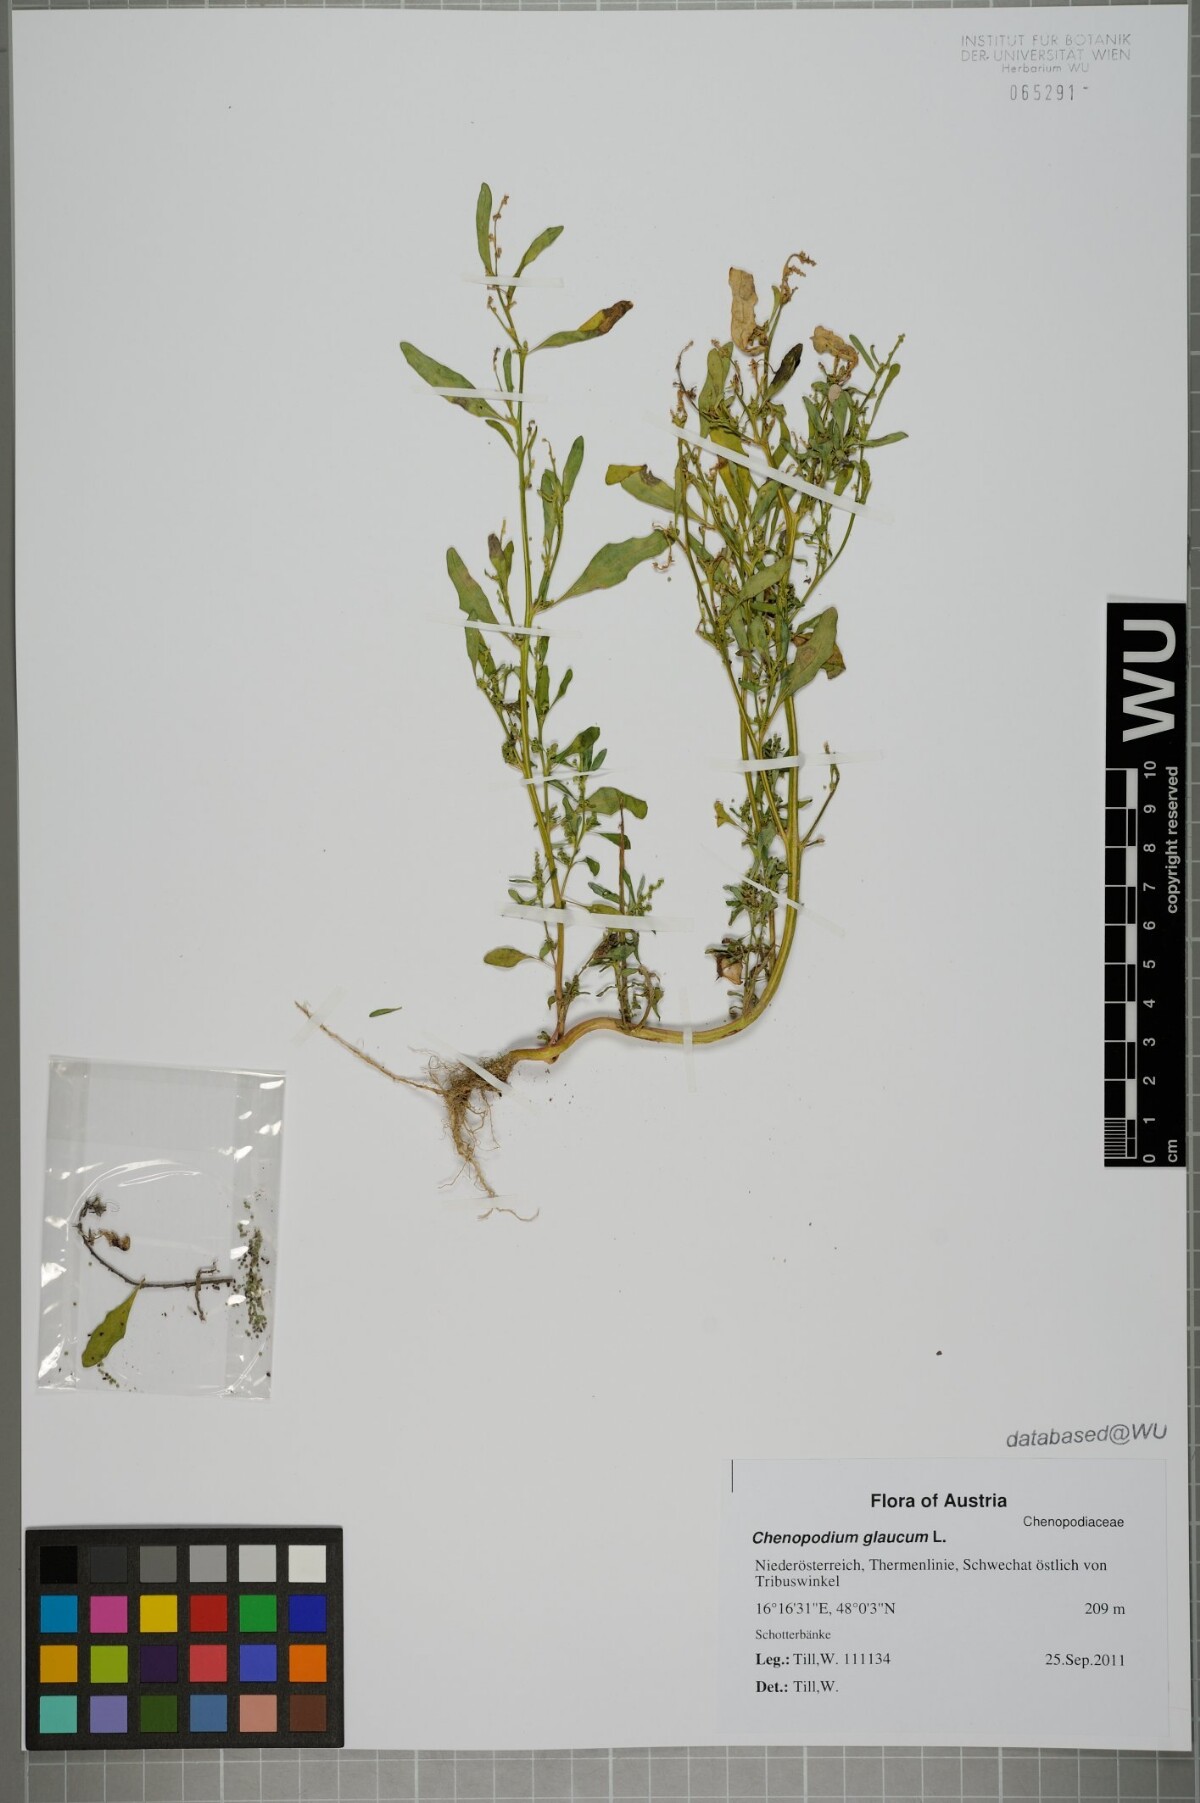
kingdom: Plantae
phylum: Tracheophyta
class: Magnoliopsida
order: Caryophyllales
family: Amaranthaceae
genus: Oxybasis
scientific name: Oxybasis glauca
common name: Glaucous goosefoot
